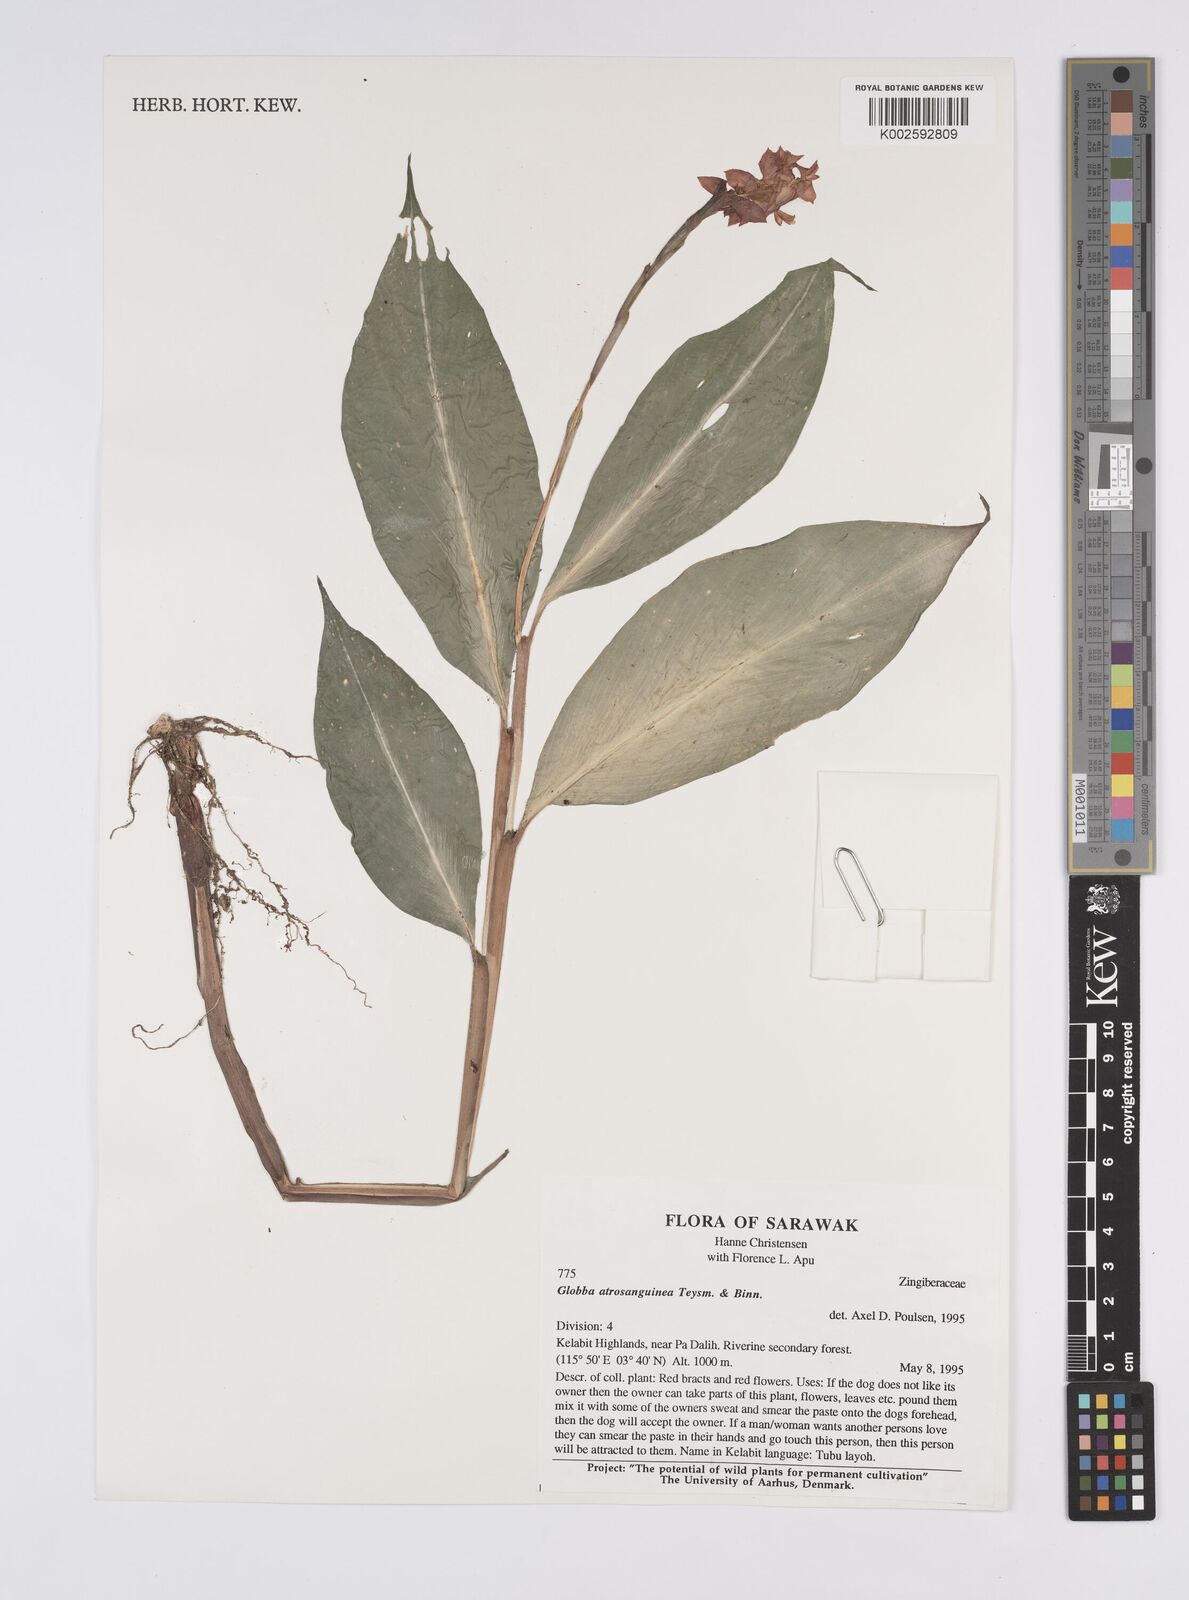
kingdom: Plantae
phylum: Tracheophyta
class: Liliopsida
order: Zingiberales
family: Zingiberaceae
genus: Globba
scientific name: Globba atrosanguinea
